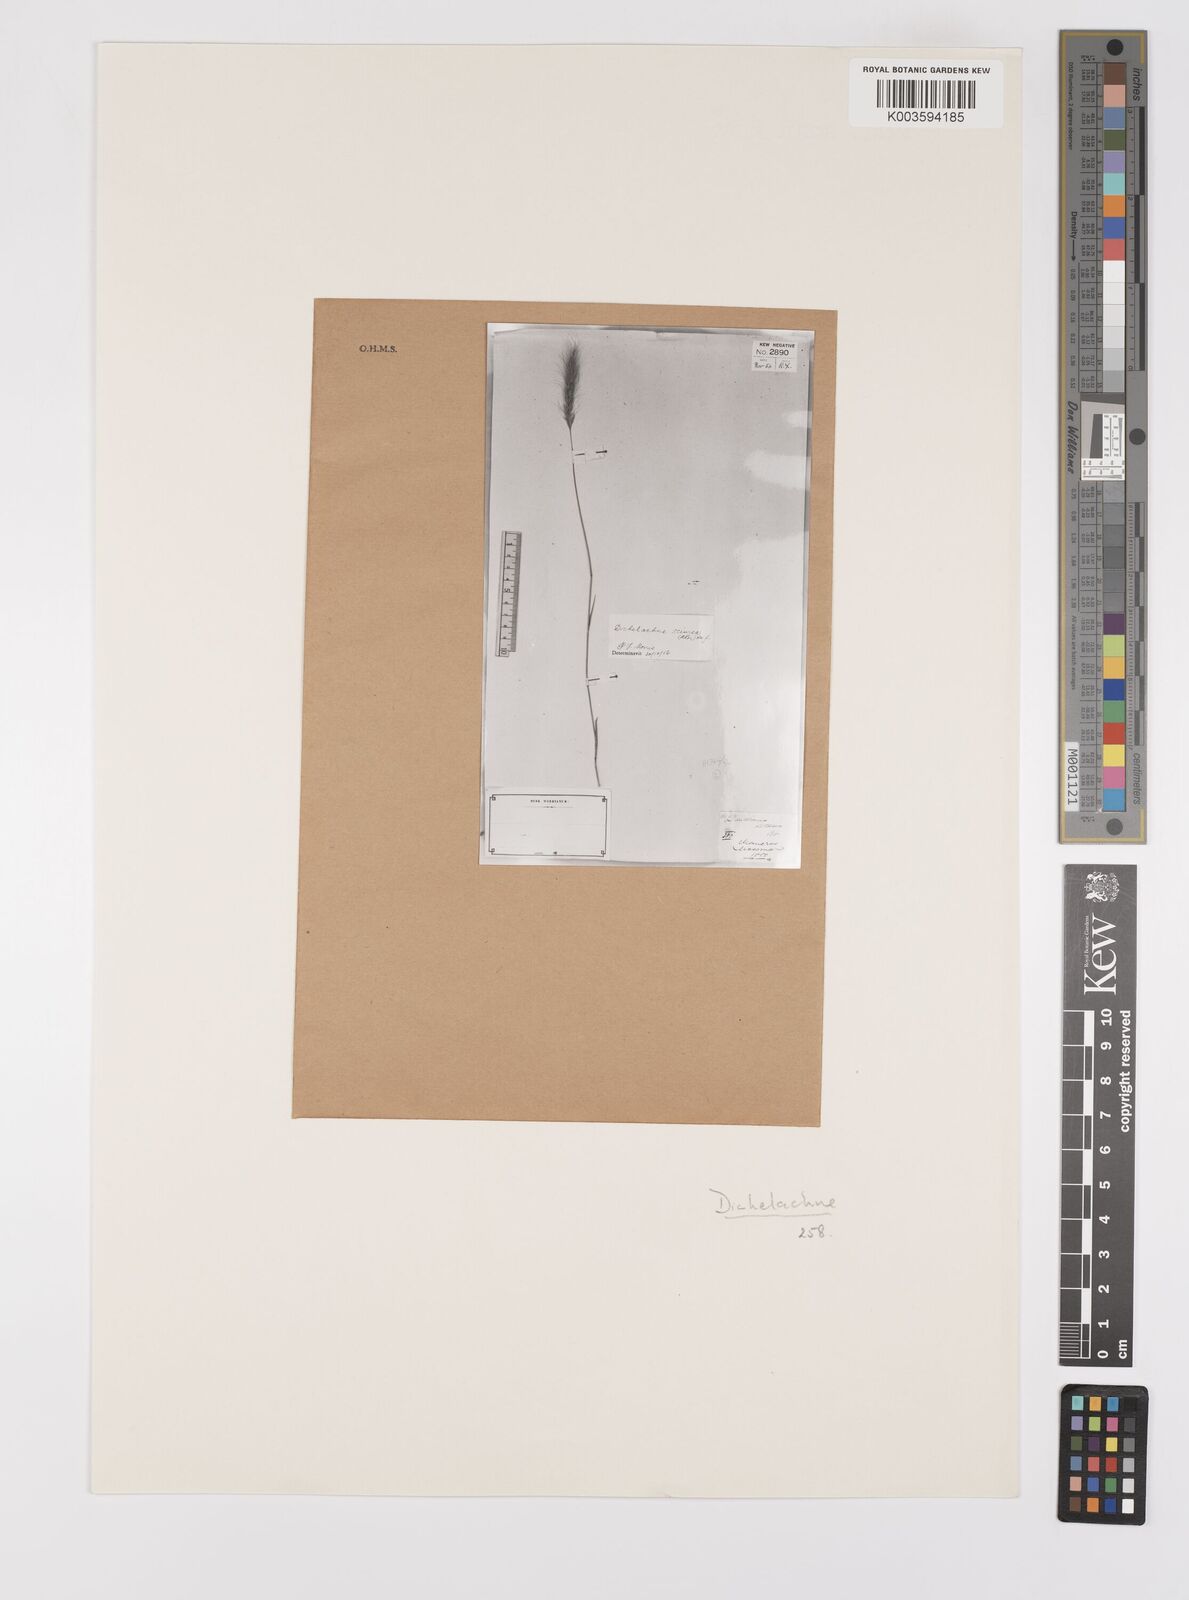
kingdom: Plantae
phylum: Tracheophyta
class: Liliopsida
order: Poales
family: Poaceae
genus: Dichelachne
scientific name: Dichelachne micrantha
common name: Plumegrass
